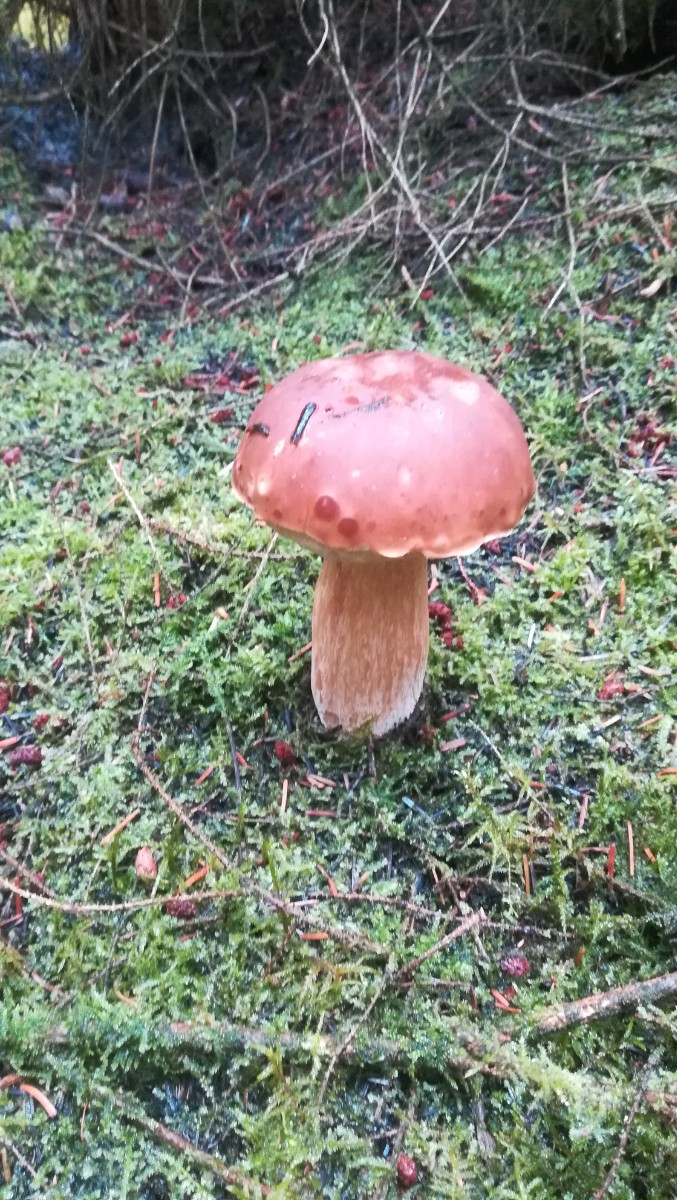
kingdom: Fungi
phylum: Basidiomycota
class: Agaricomycetes
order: Boletales
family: Boletaceae
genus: Boletus
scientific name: Boletus edulis
